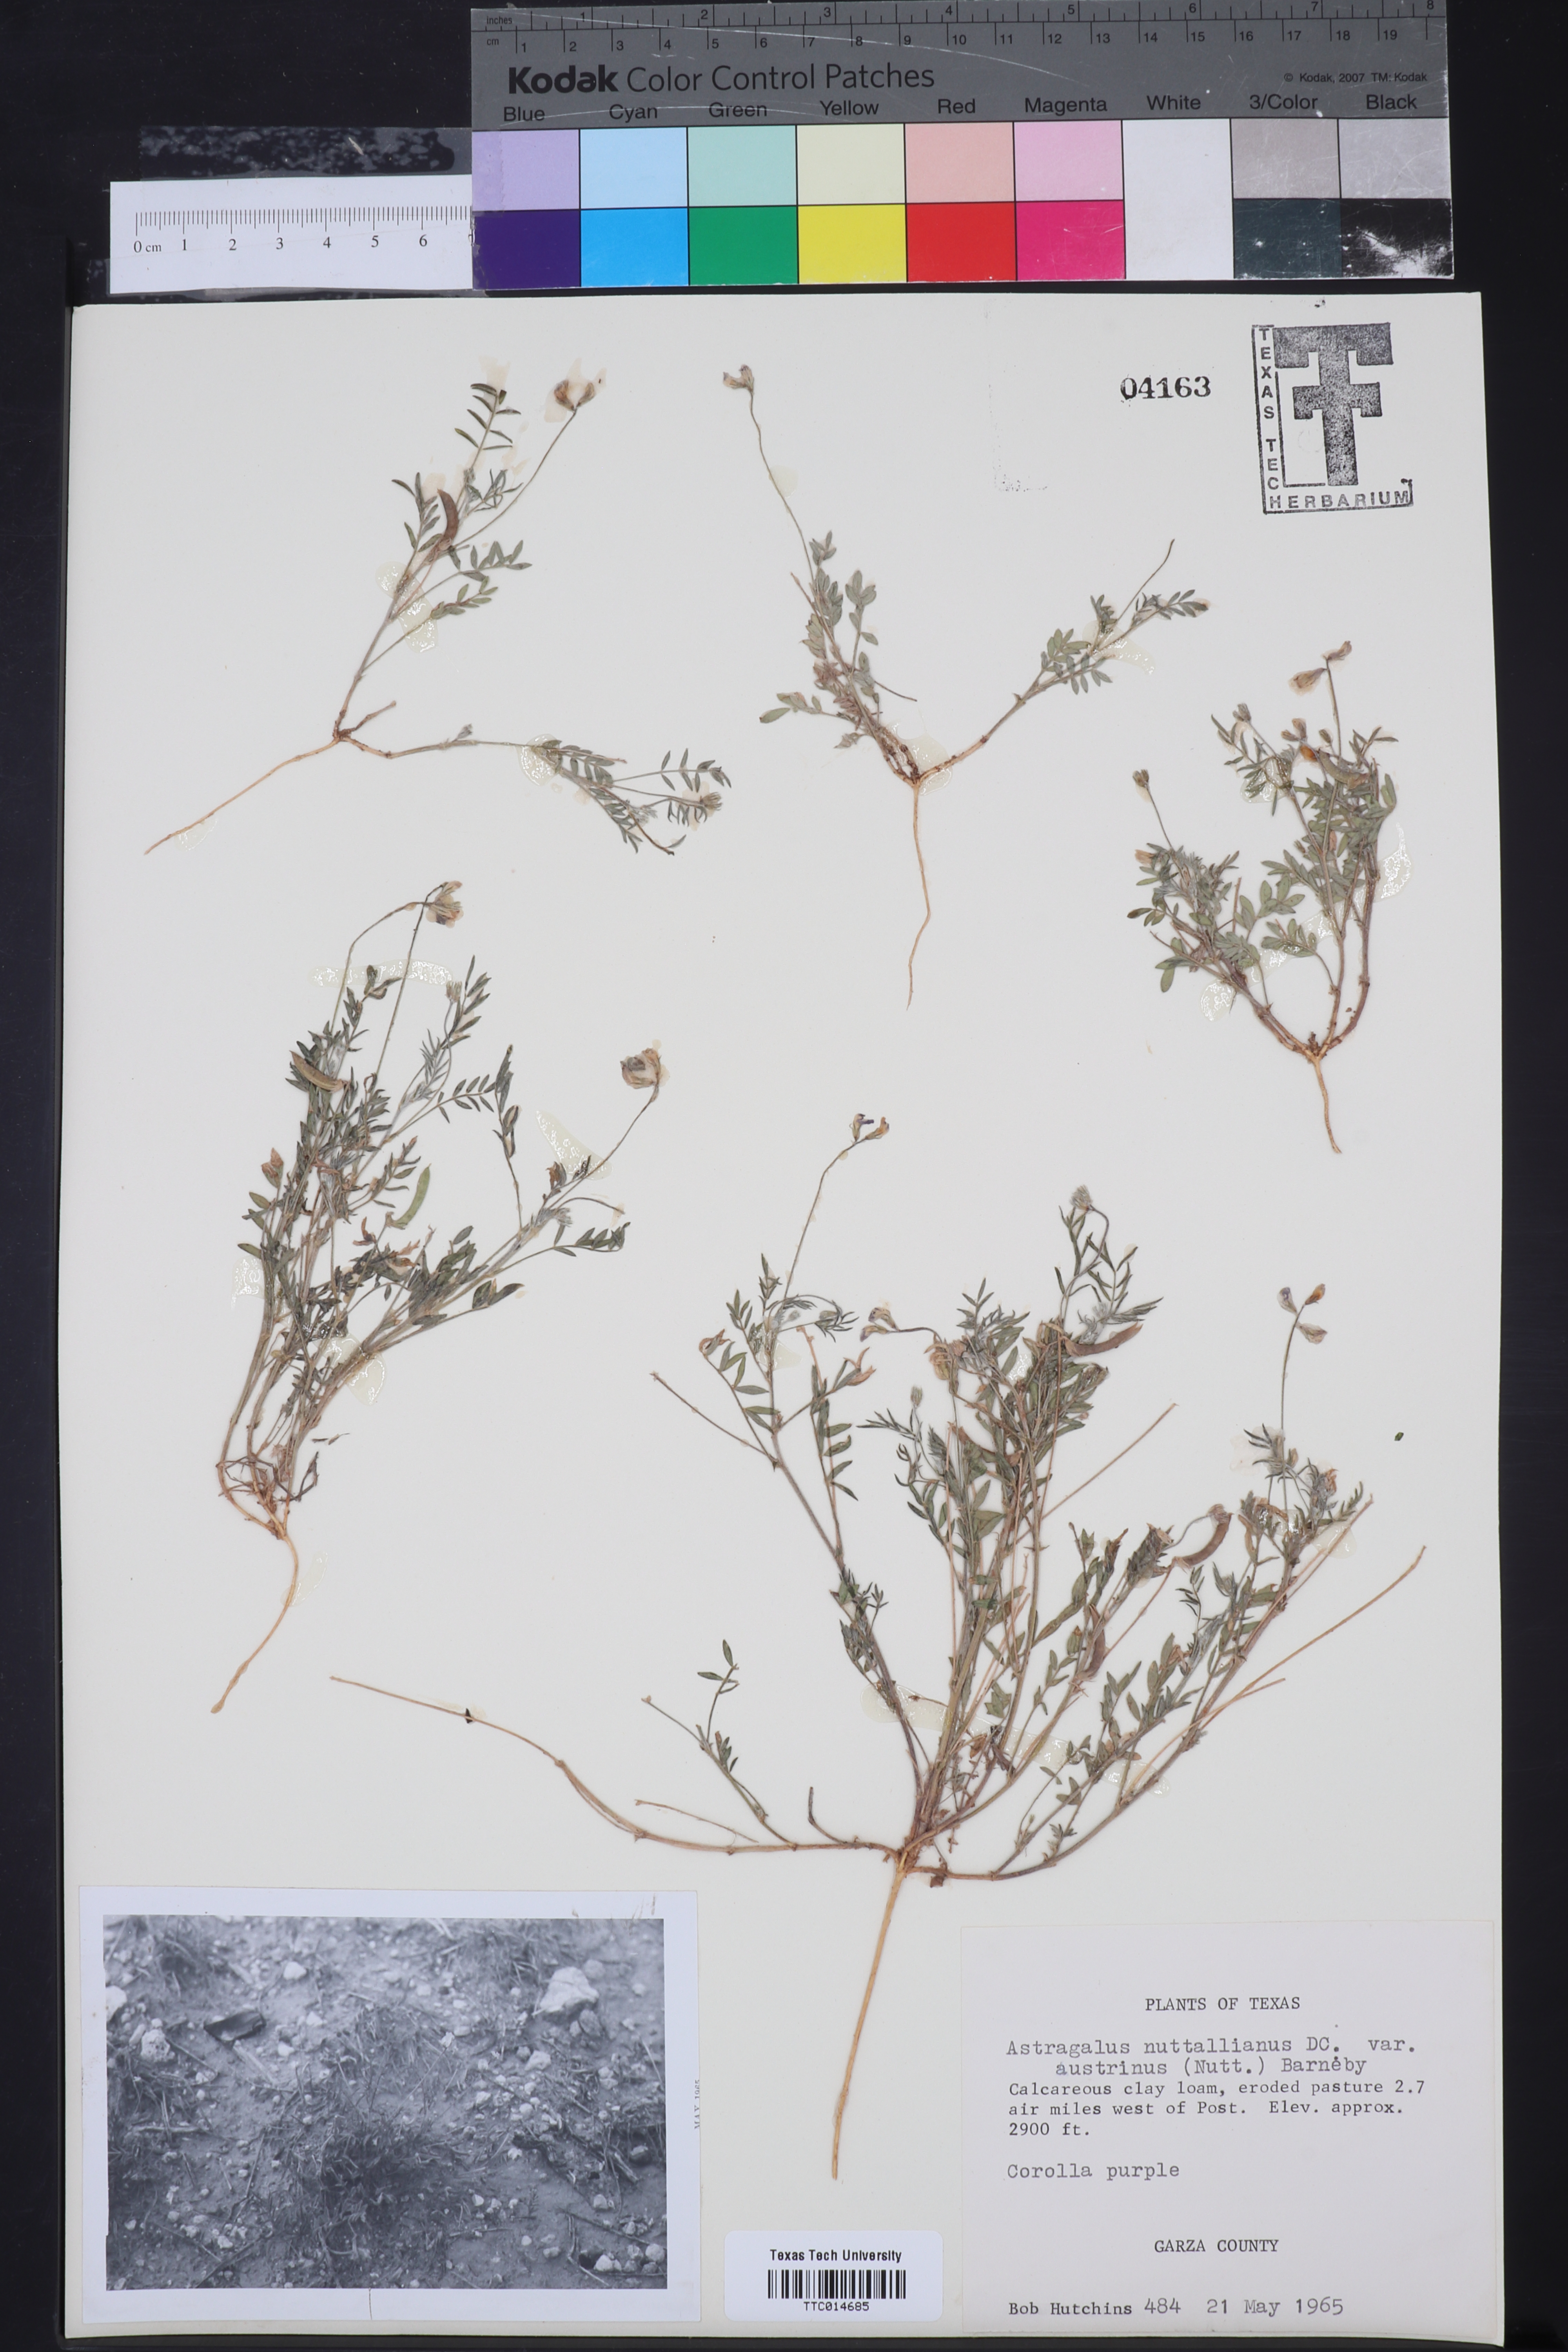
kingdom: Plantae
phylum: Tracheophyta
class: Magnoliopsida
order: Fabales
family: Fabaceae
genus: Astragalus
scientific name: Astragalus nuttallianus
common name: Smallflowered milkvetch
